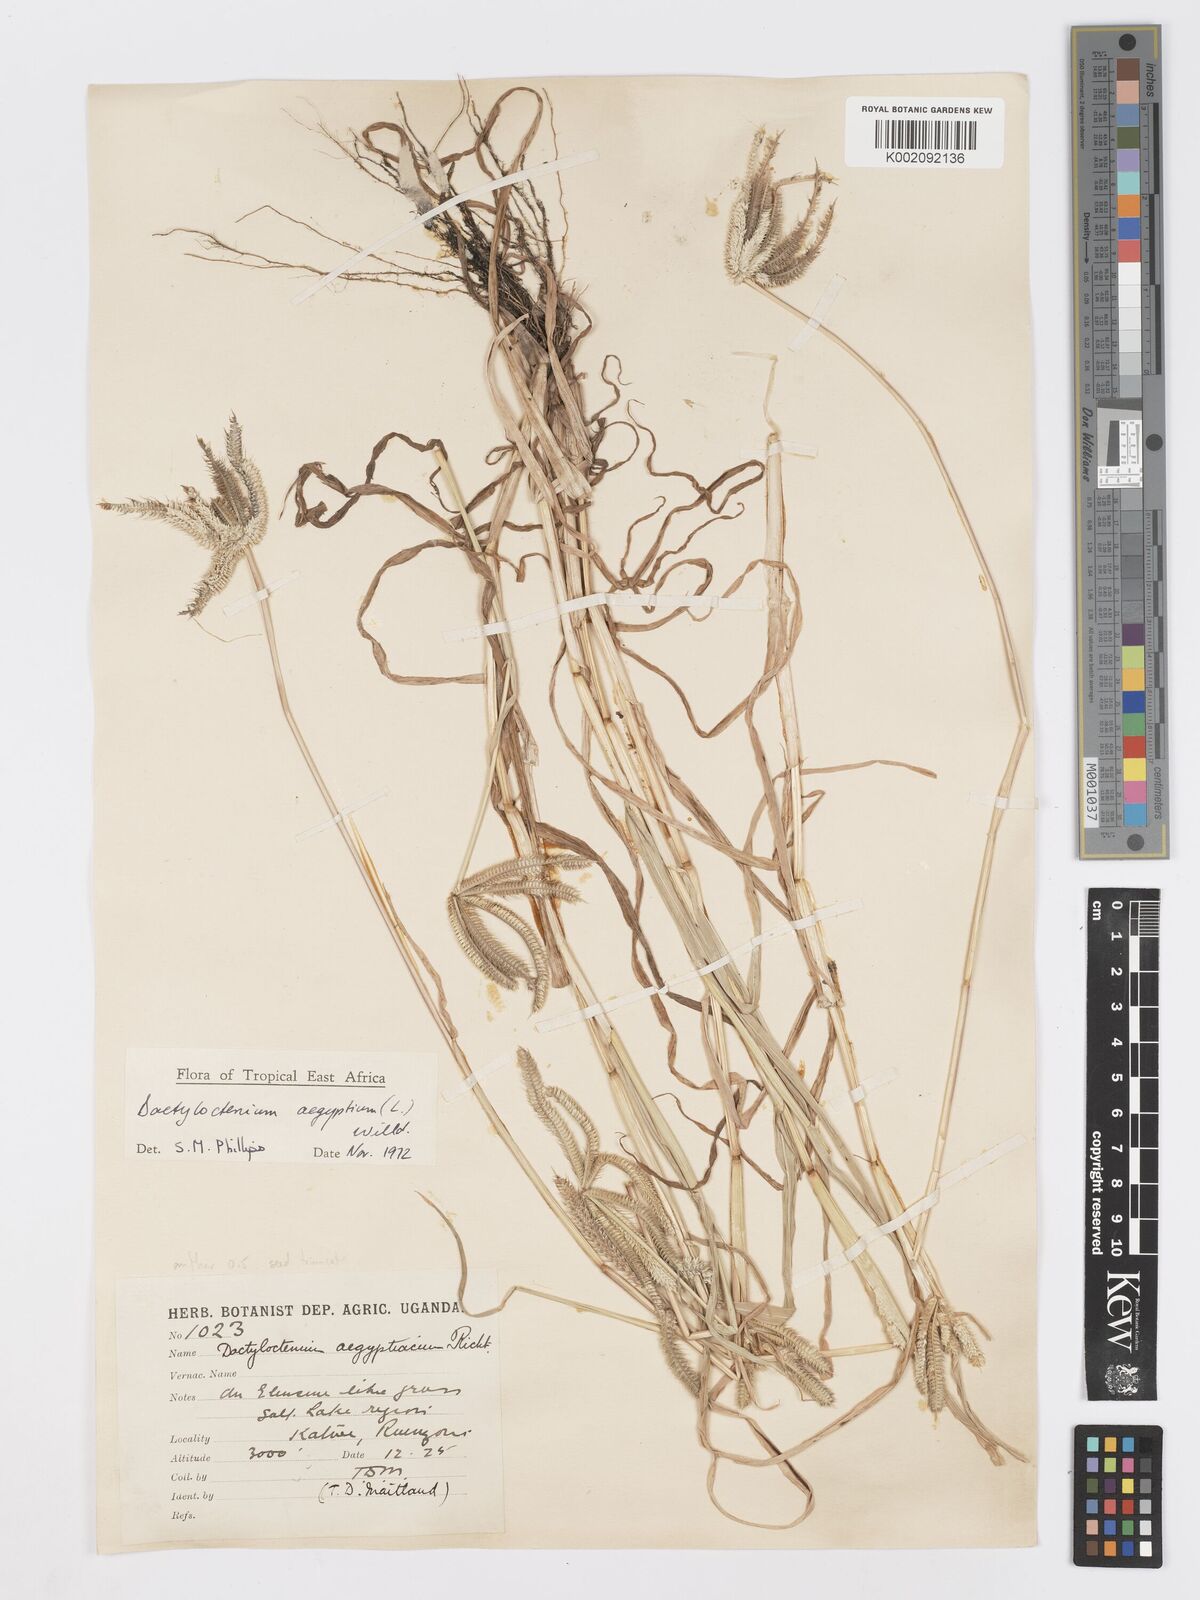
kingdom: Plantae
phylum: Tracheophyta
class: Liliopsida
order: Poales
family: Poaceae
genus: Dactyloctenium
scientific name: Dactyloctenium aegyptium
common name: Egyptian grass
